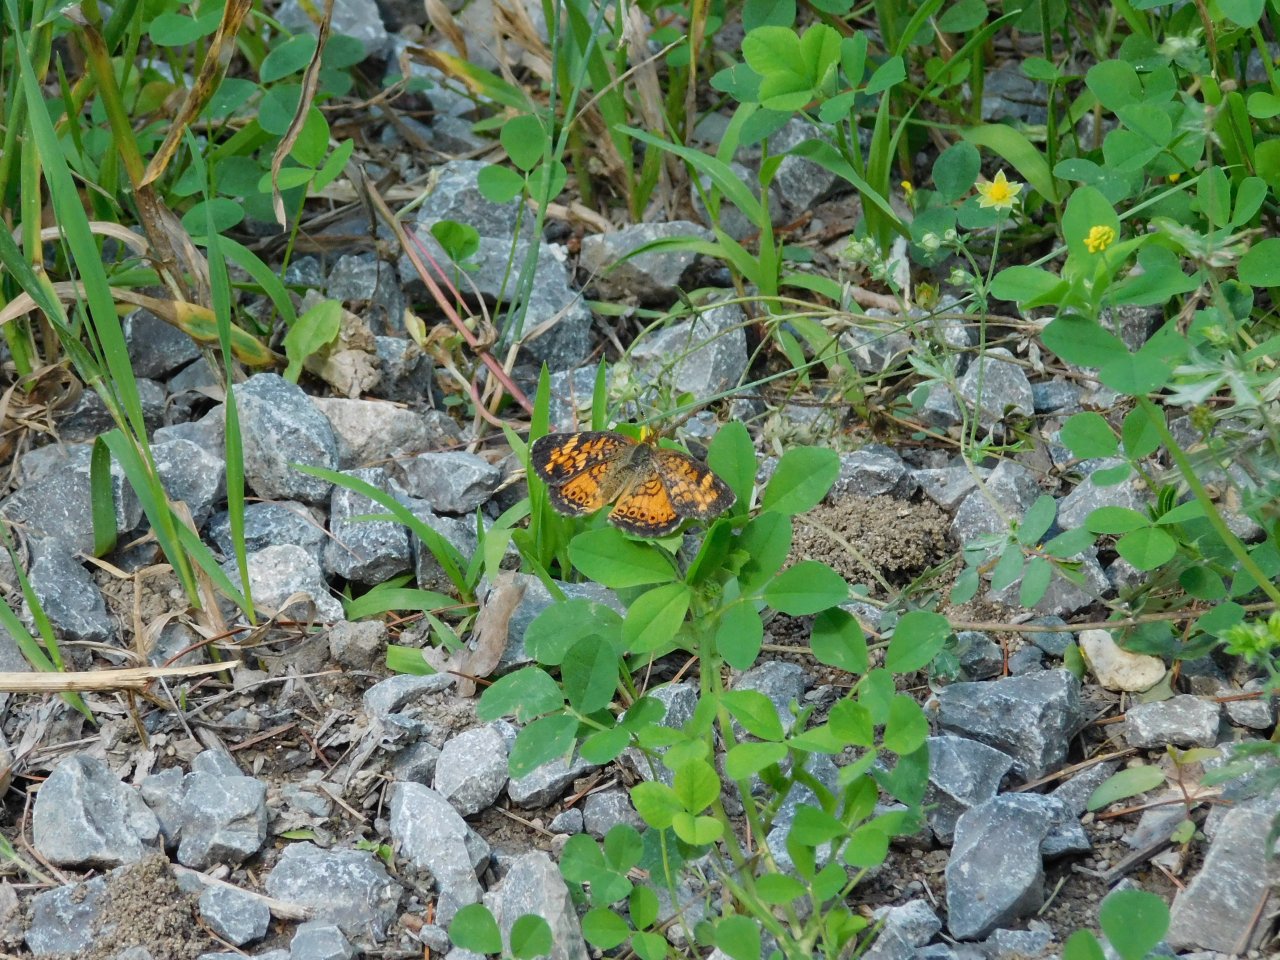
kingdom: Animalia
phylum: Arthropoda
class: Insecta
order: Lepidoptera
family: Nymphalidae
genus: Phyciodes
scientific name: Phyciodes tharos
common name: Pearl Crescent
